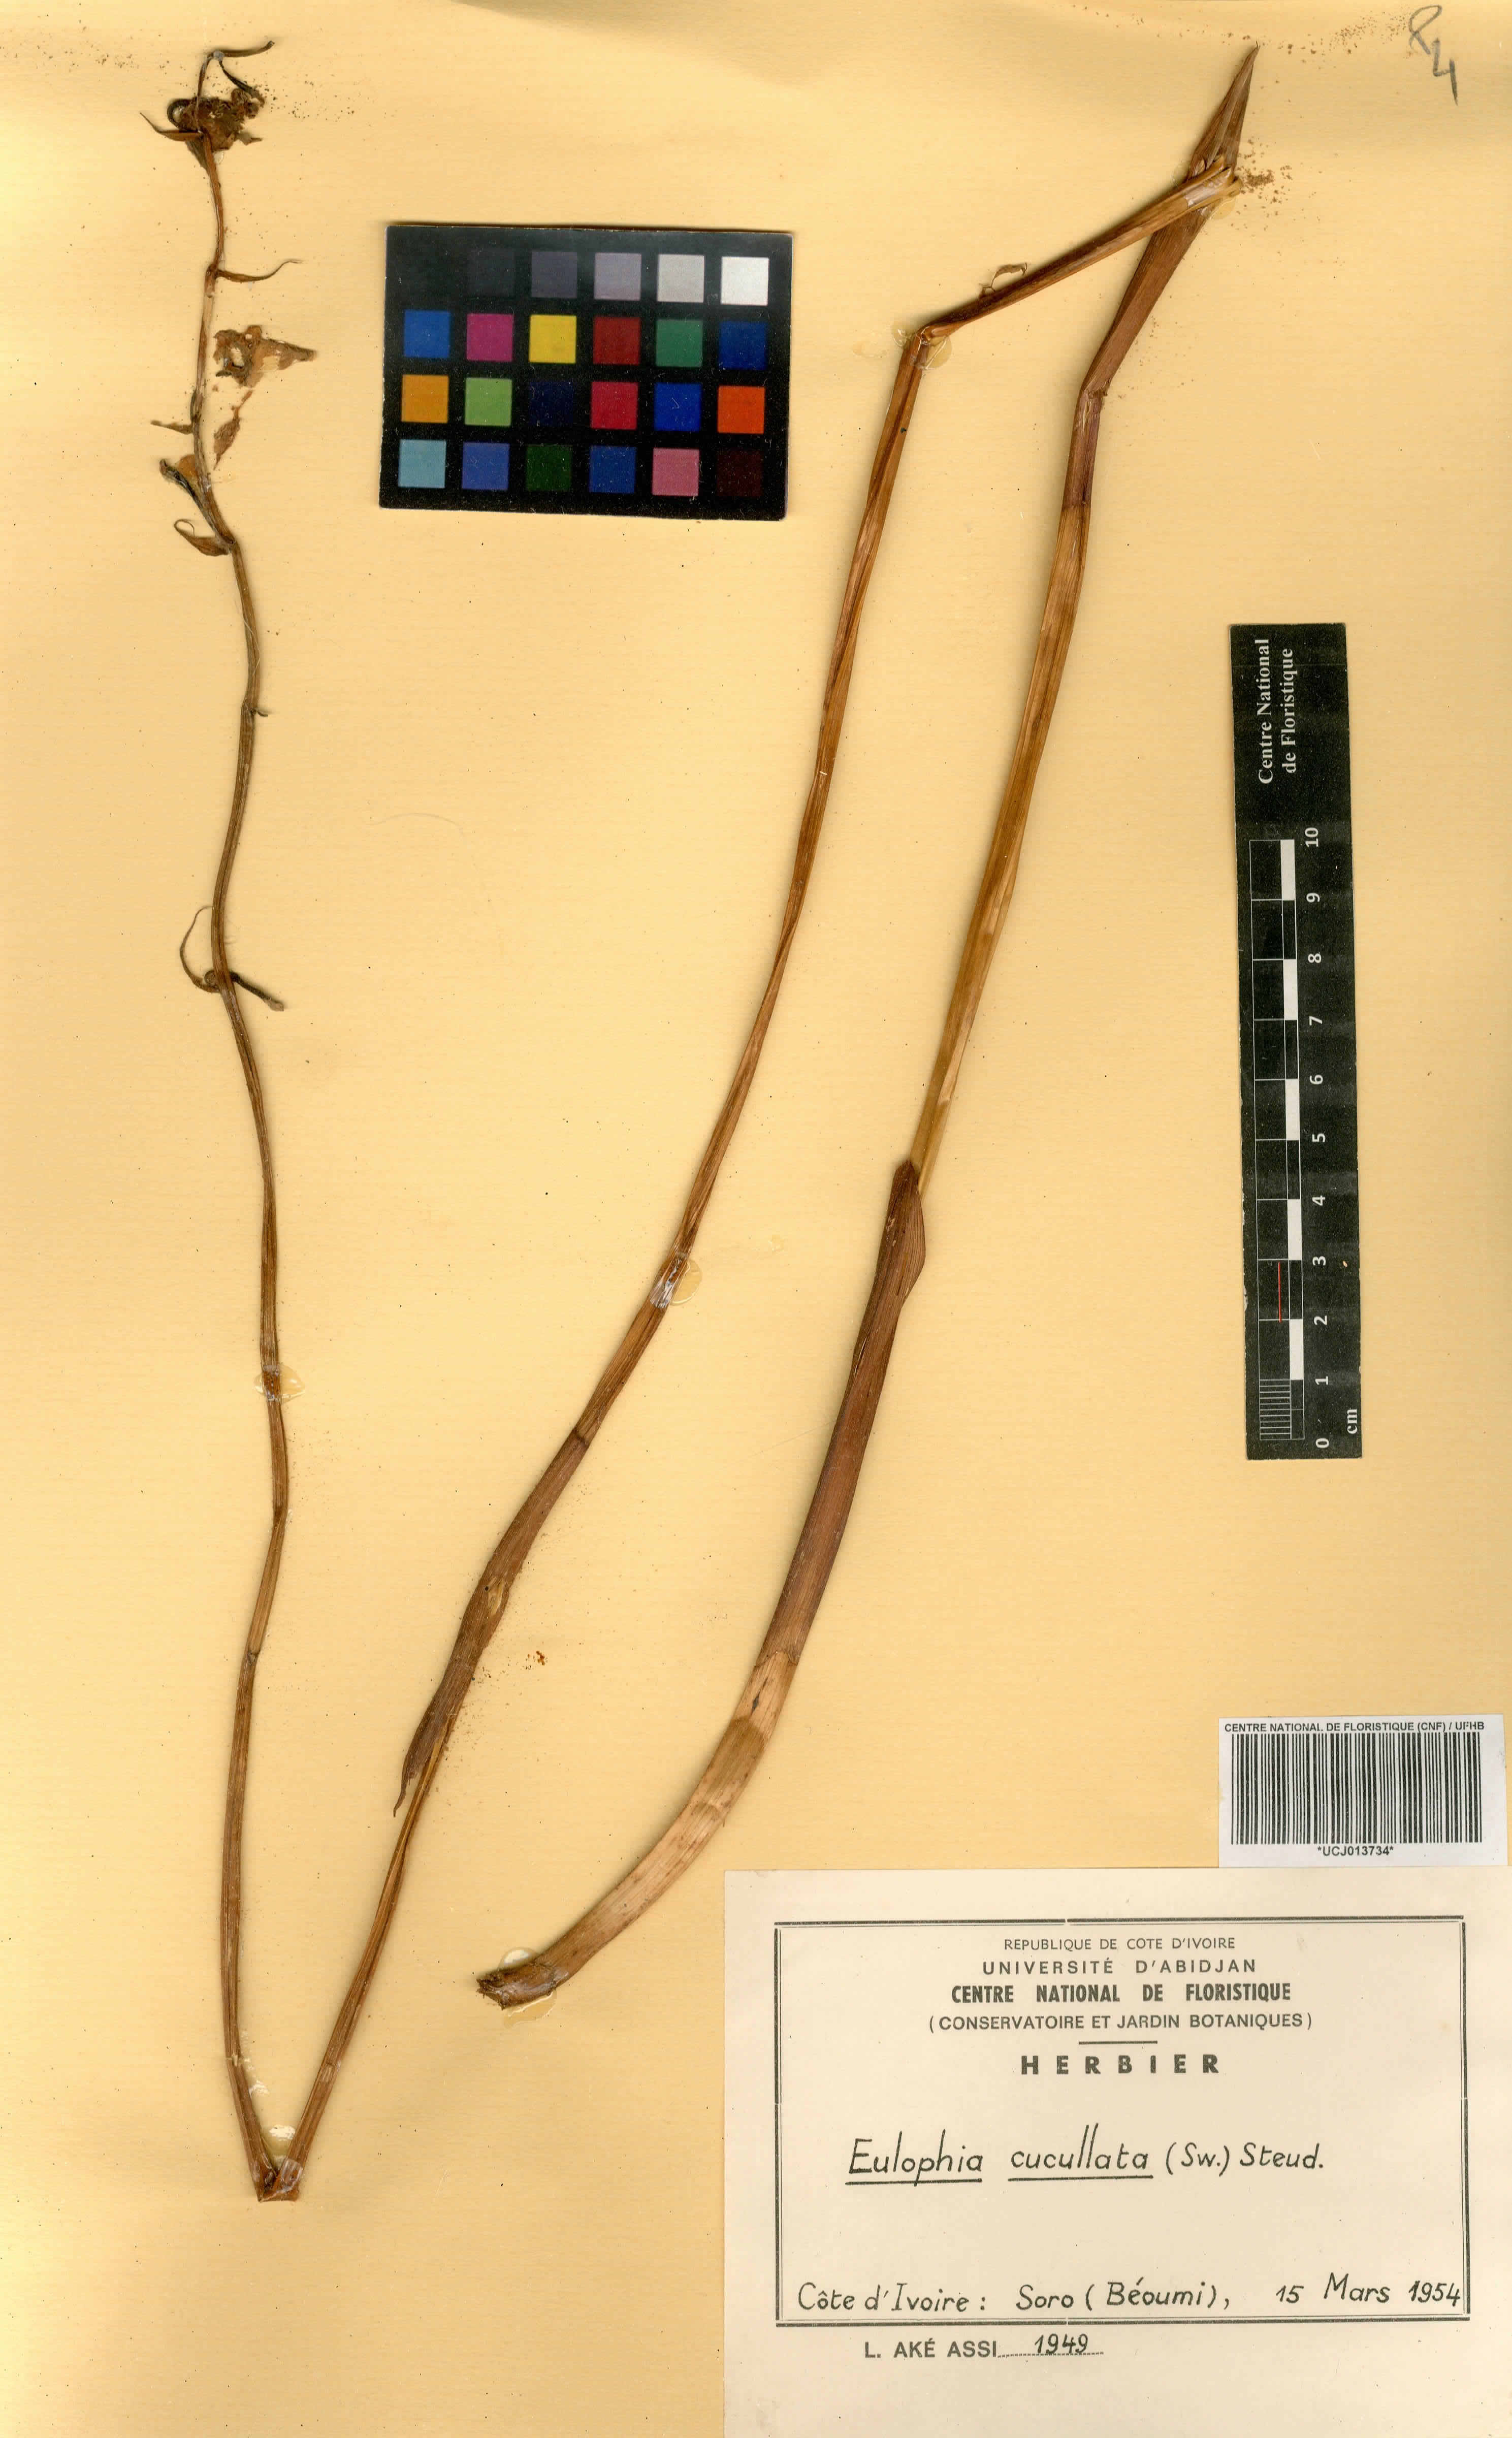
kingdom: Plantae
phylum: Tracheophyta
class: Liliopsida
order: Asparagales
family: Orchidaceae
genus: Eulophia
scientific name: Eulophia cucullata
